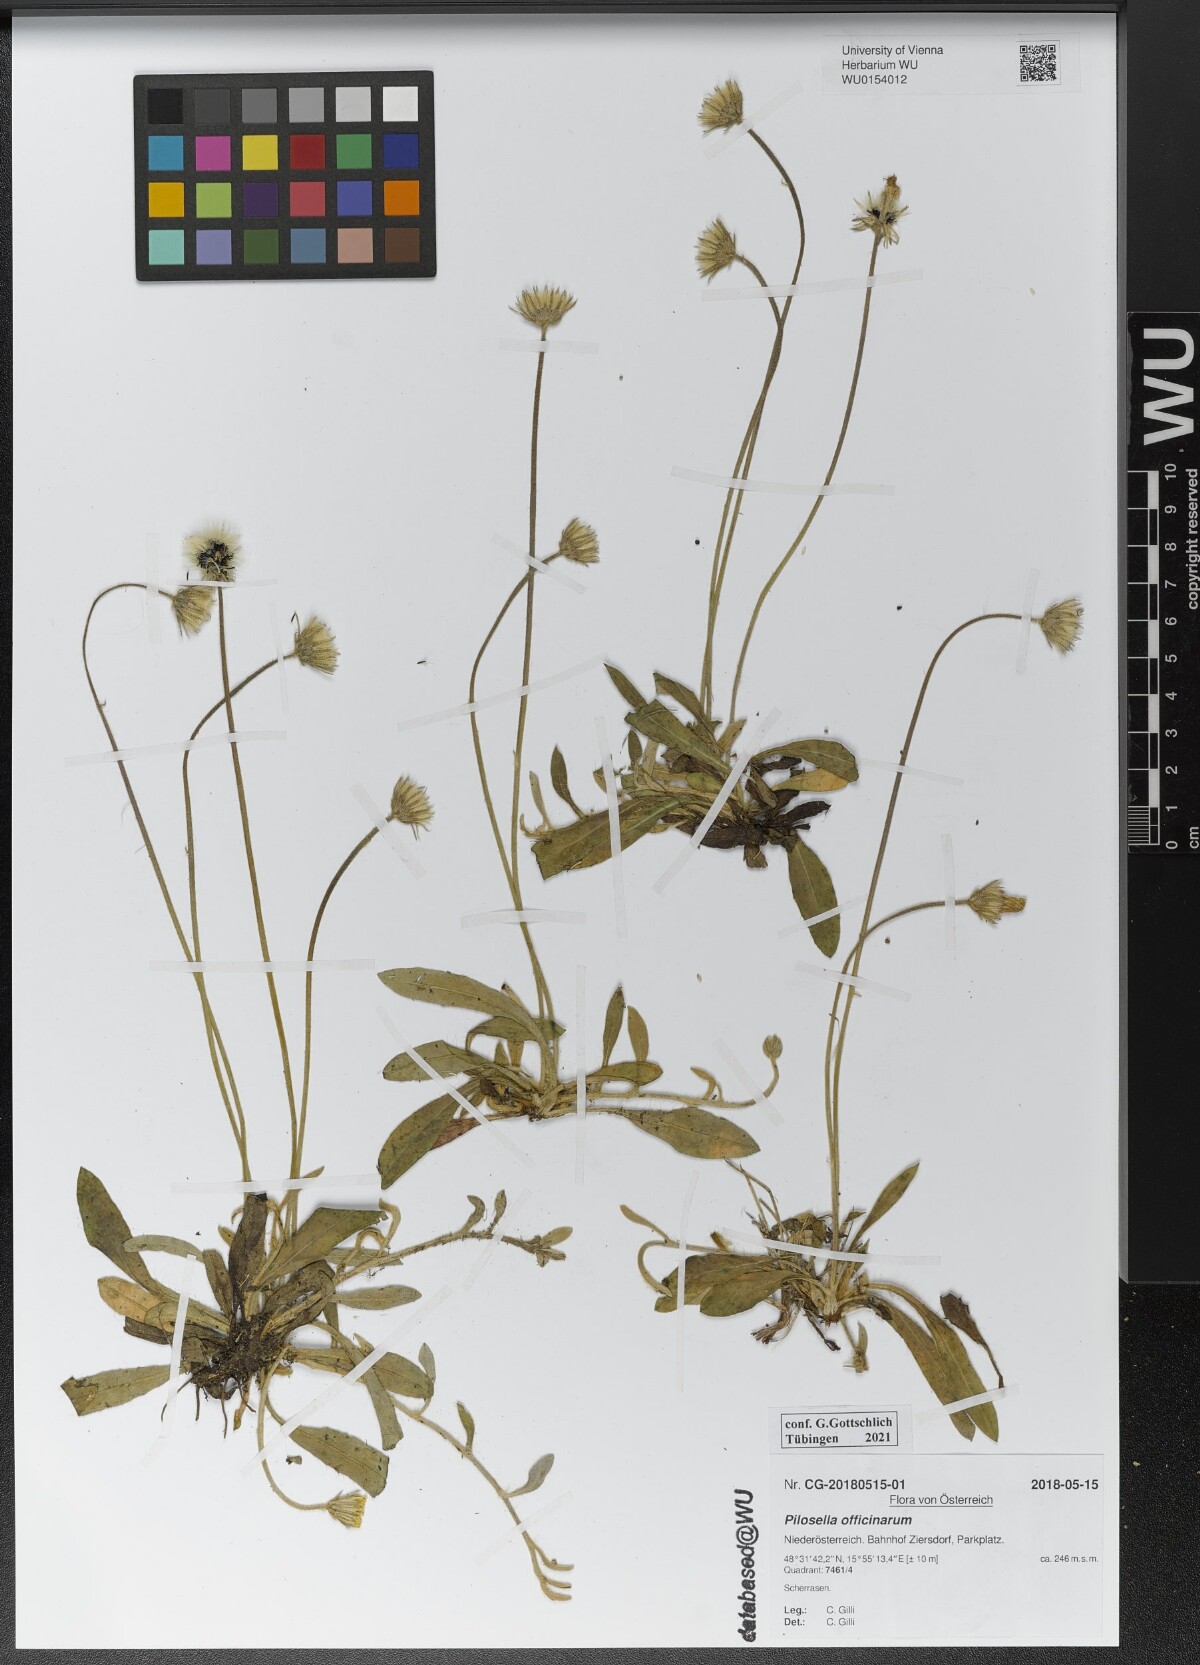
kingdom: Plantae
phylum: Tracheophyta
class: Magnoliopsida
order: Asterales
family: Asteraceae
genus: Pilosella
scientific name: Pilosella officinarum
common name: Mouse-ear hawkweed
